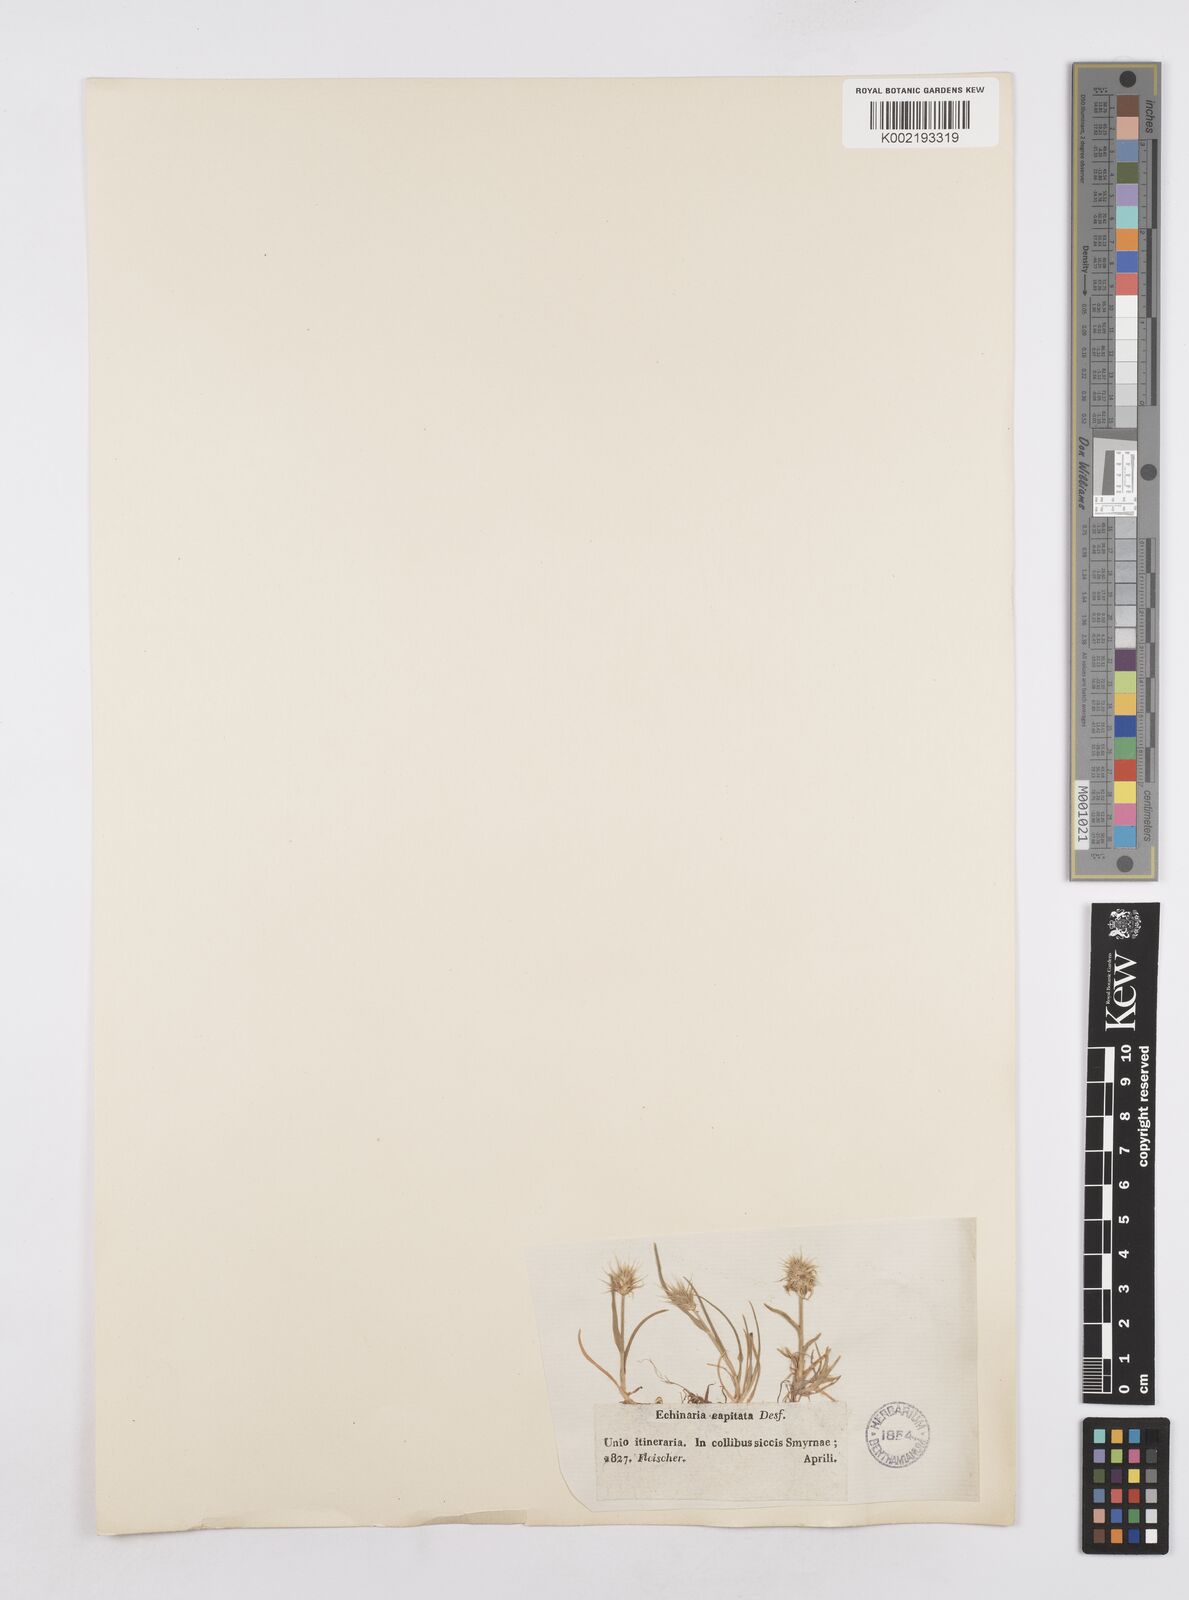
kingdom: Plantae
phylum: Tracheophyta
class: Liliopsida
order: Poales
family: Poaceae
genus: Echinaria
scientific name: Echinaria capitata
